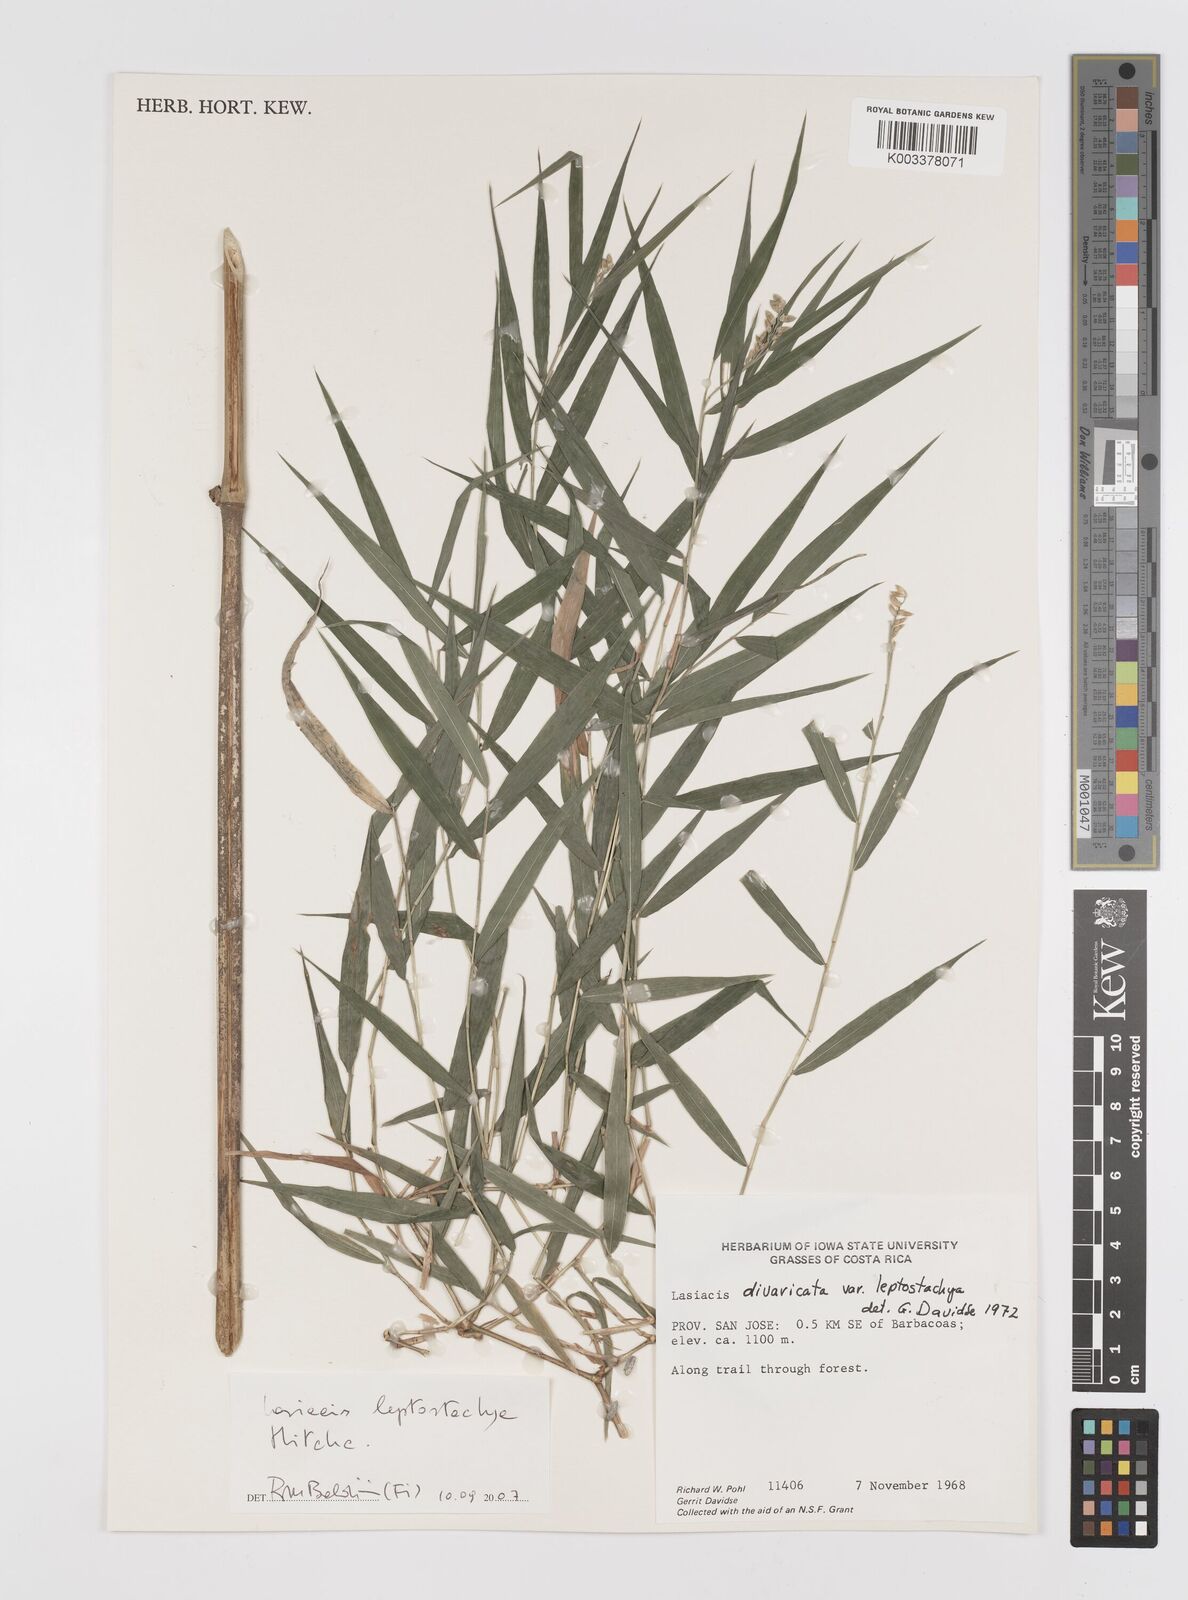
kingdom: Plantae
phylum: Tracheophyta
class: Liliopsida
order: Poales
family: Poaceae
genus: Lasiacis
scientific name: Lasiacis divaricata
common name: Smallcane
